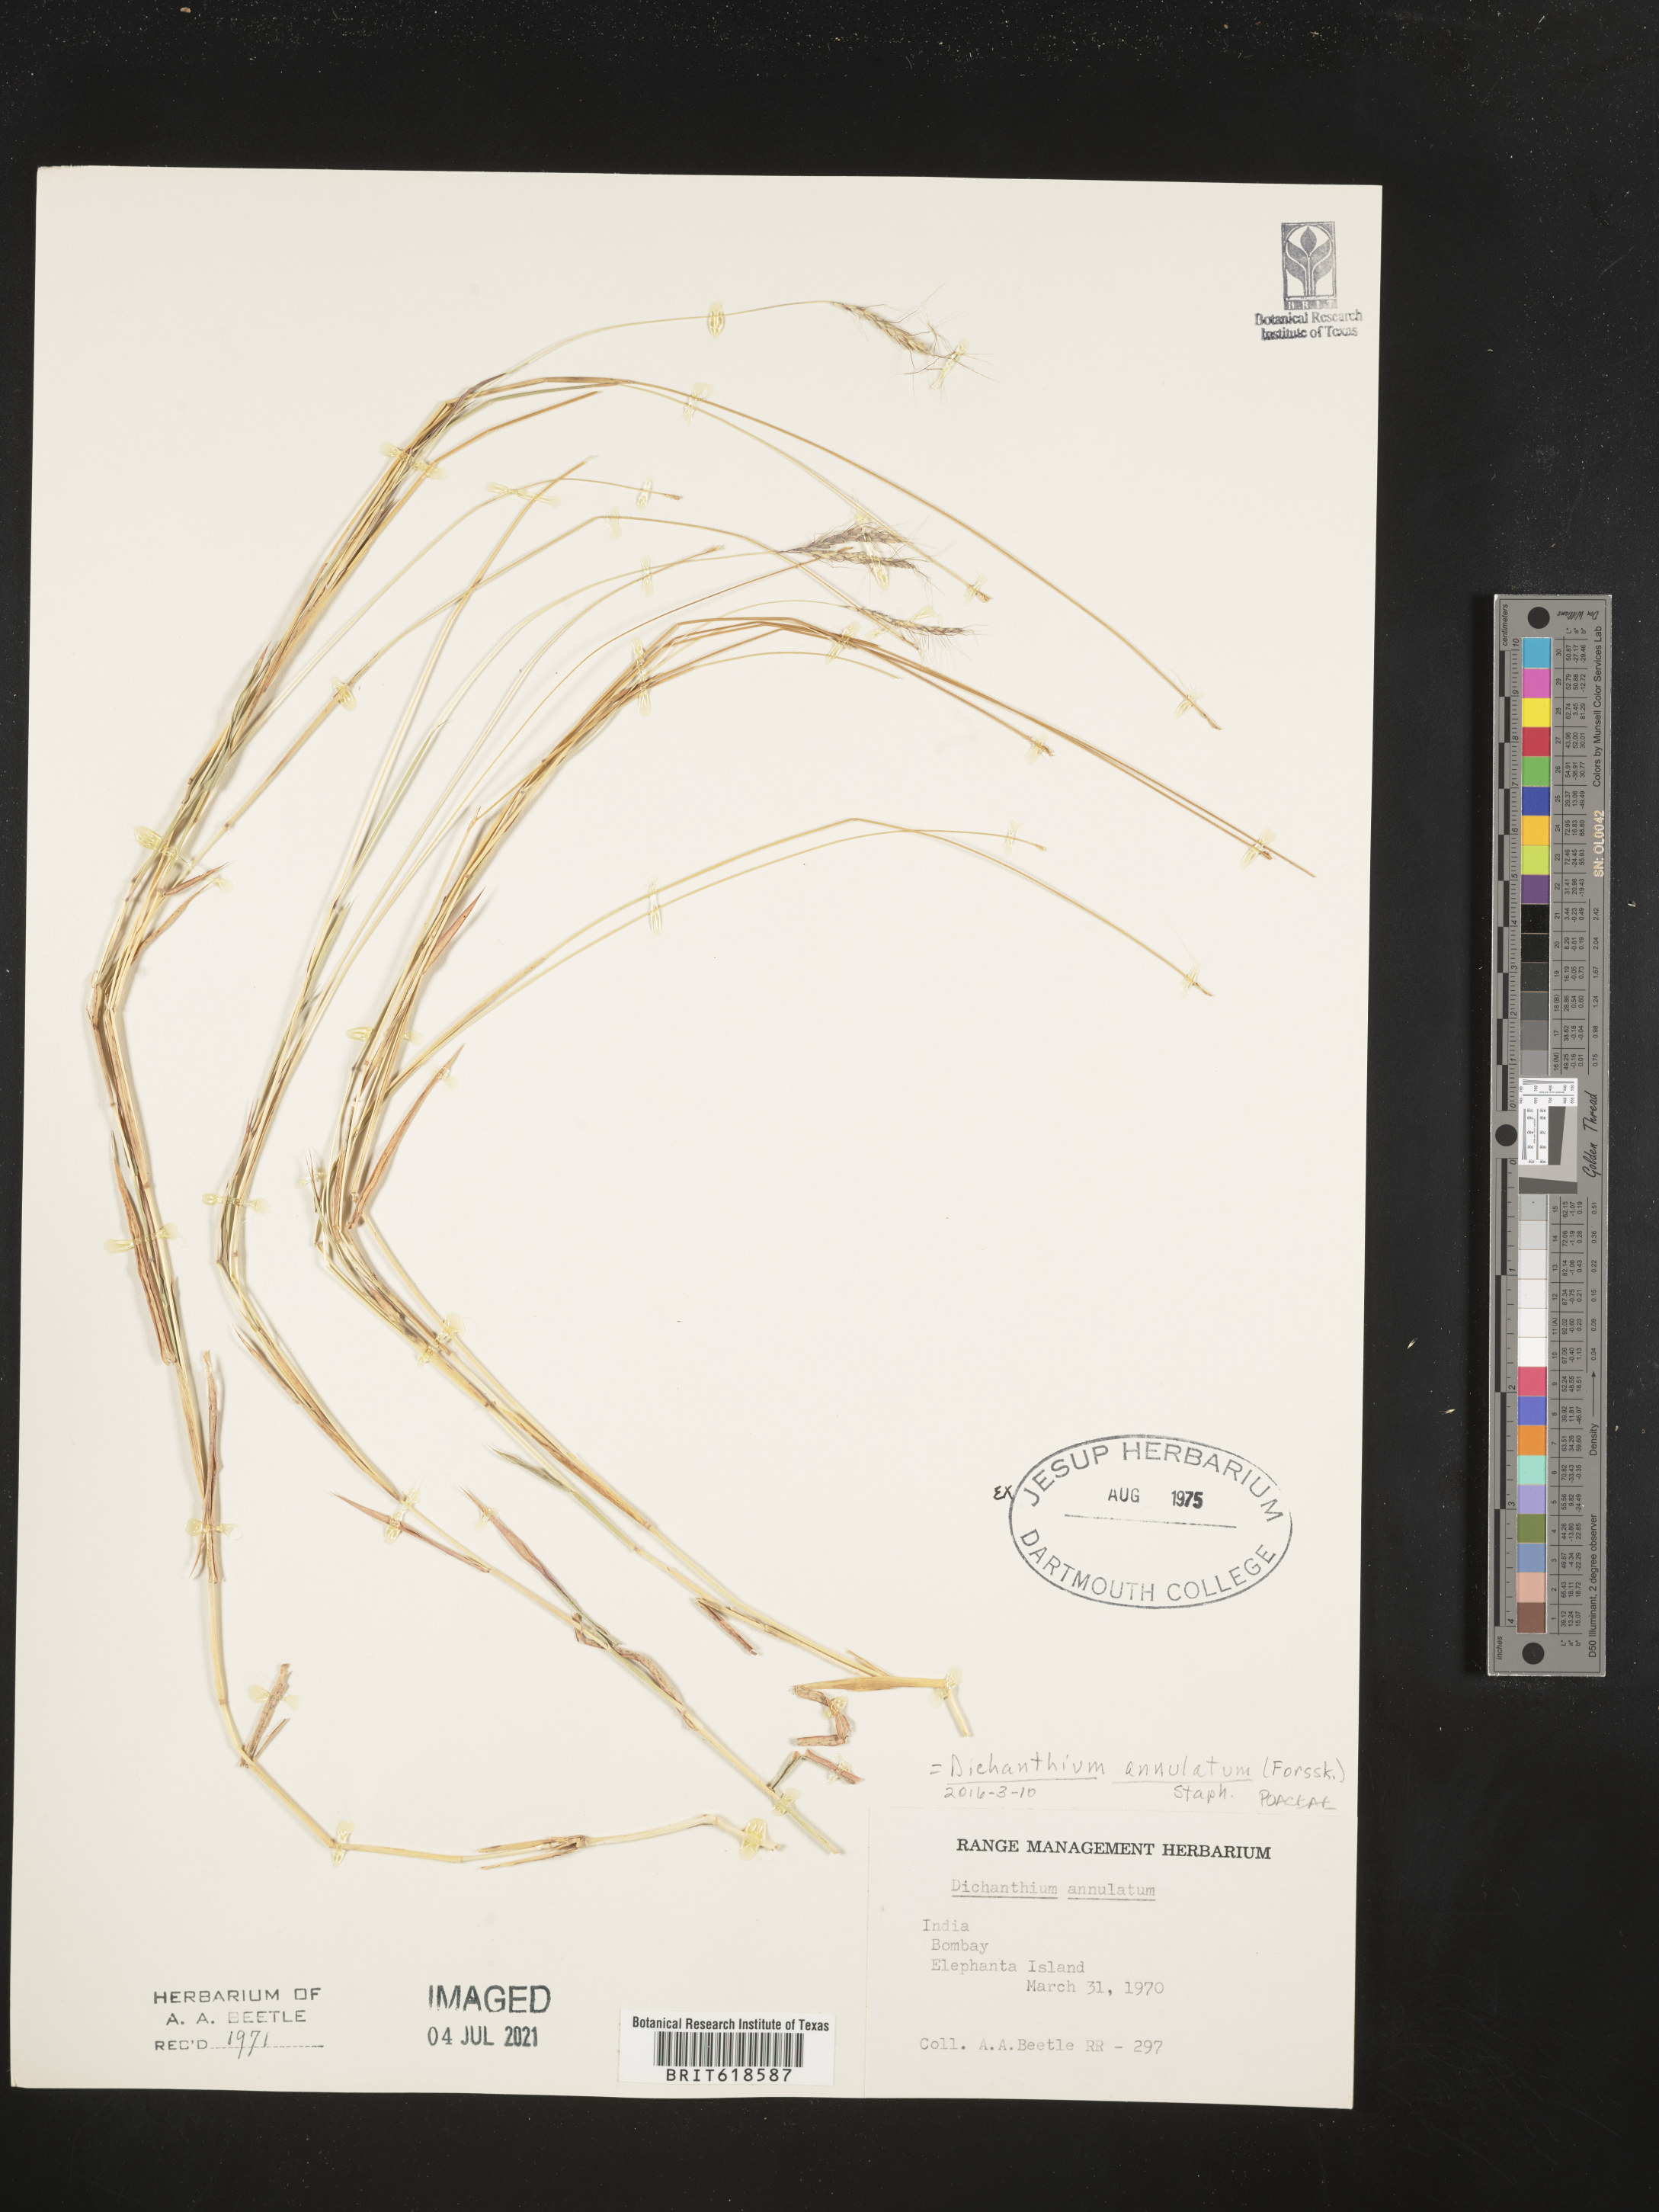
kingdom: Plantae
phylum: Tracheophyta
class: Liliopsida
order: Poales
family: Poaceae
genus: Dichanthium
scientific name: Dichanthium annulatum
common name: Kleberg's bluestem
